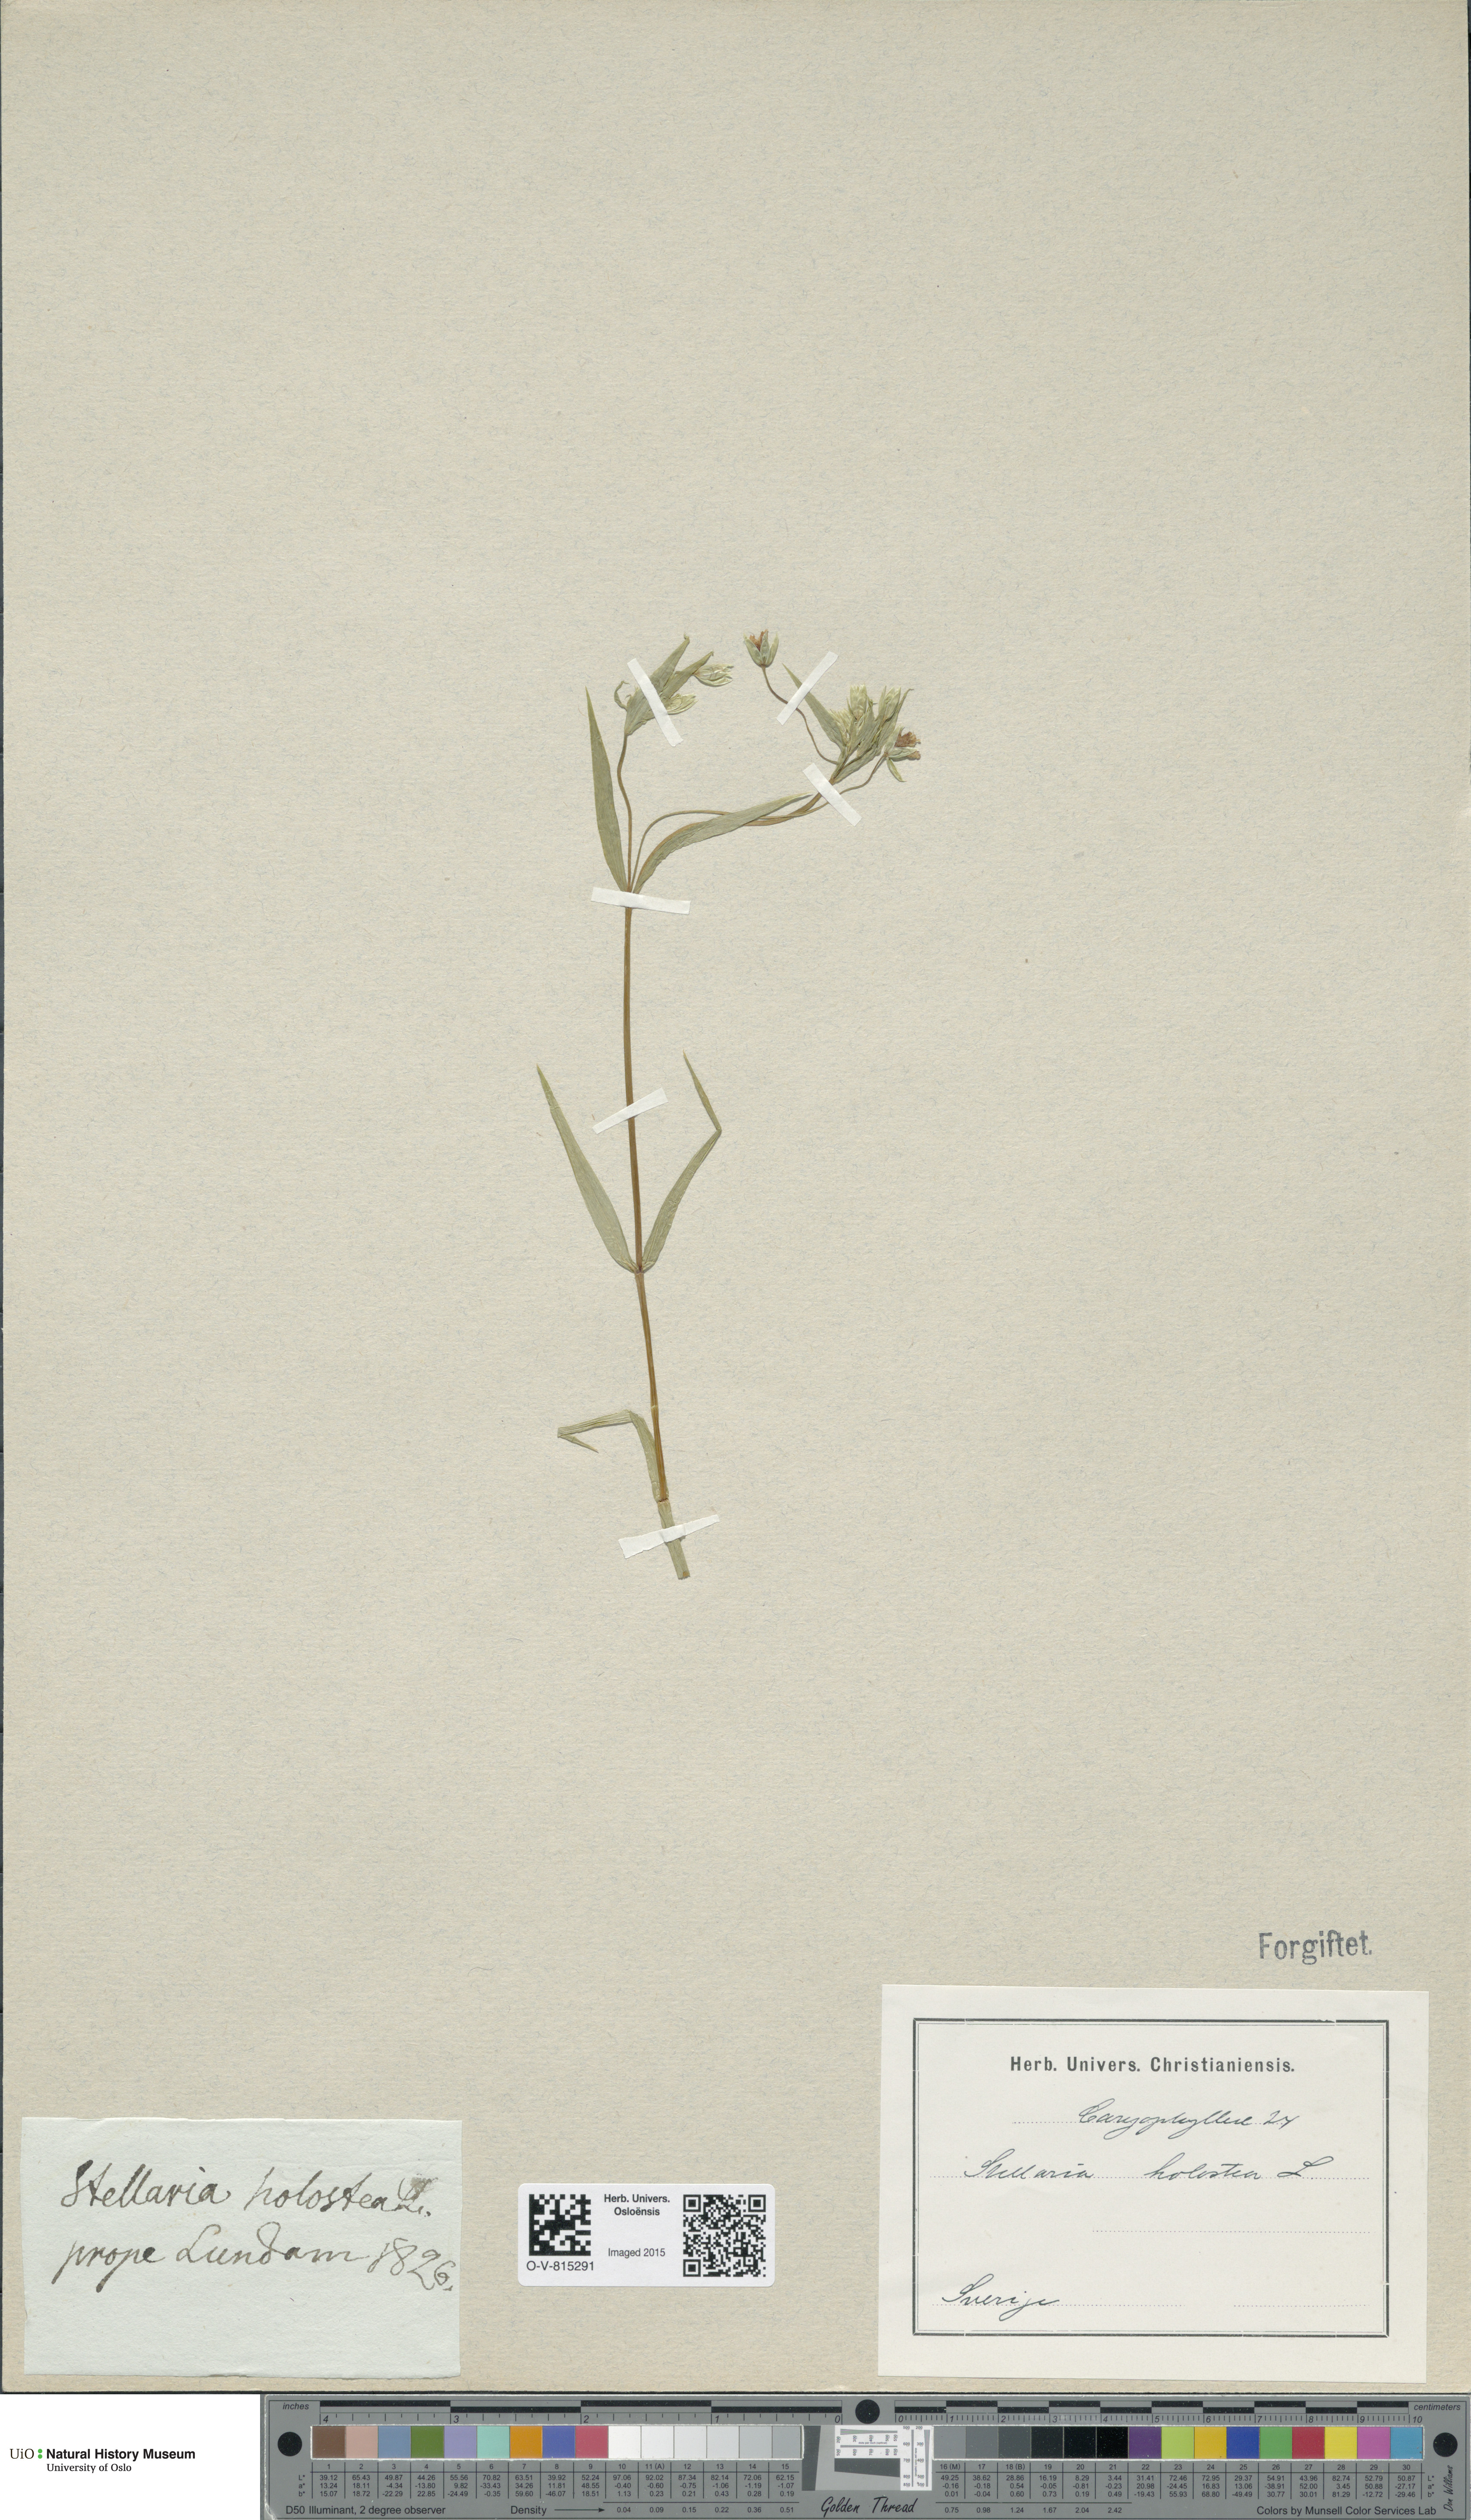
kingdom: Plantae
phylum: Tracheophyta
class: Magnoliopsida
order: Caryophyllales
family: Caryophyllaceae
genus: Rabelera
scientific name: Rabelera holostea
